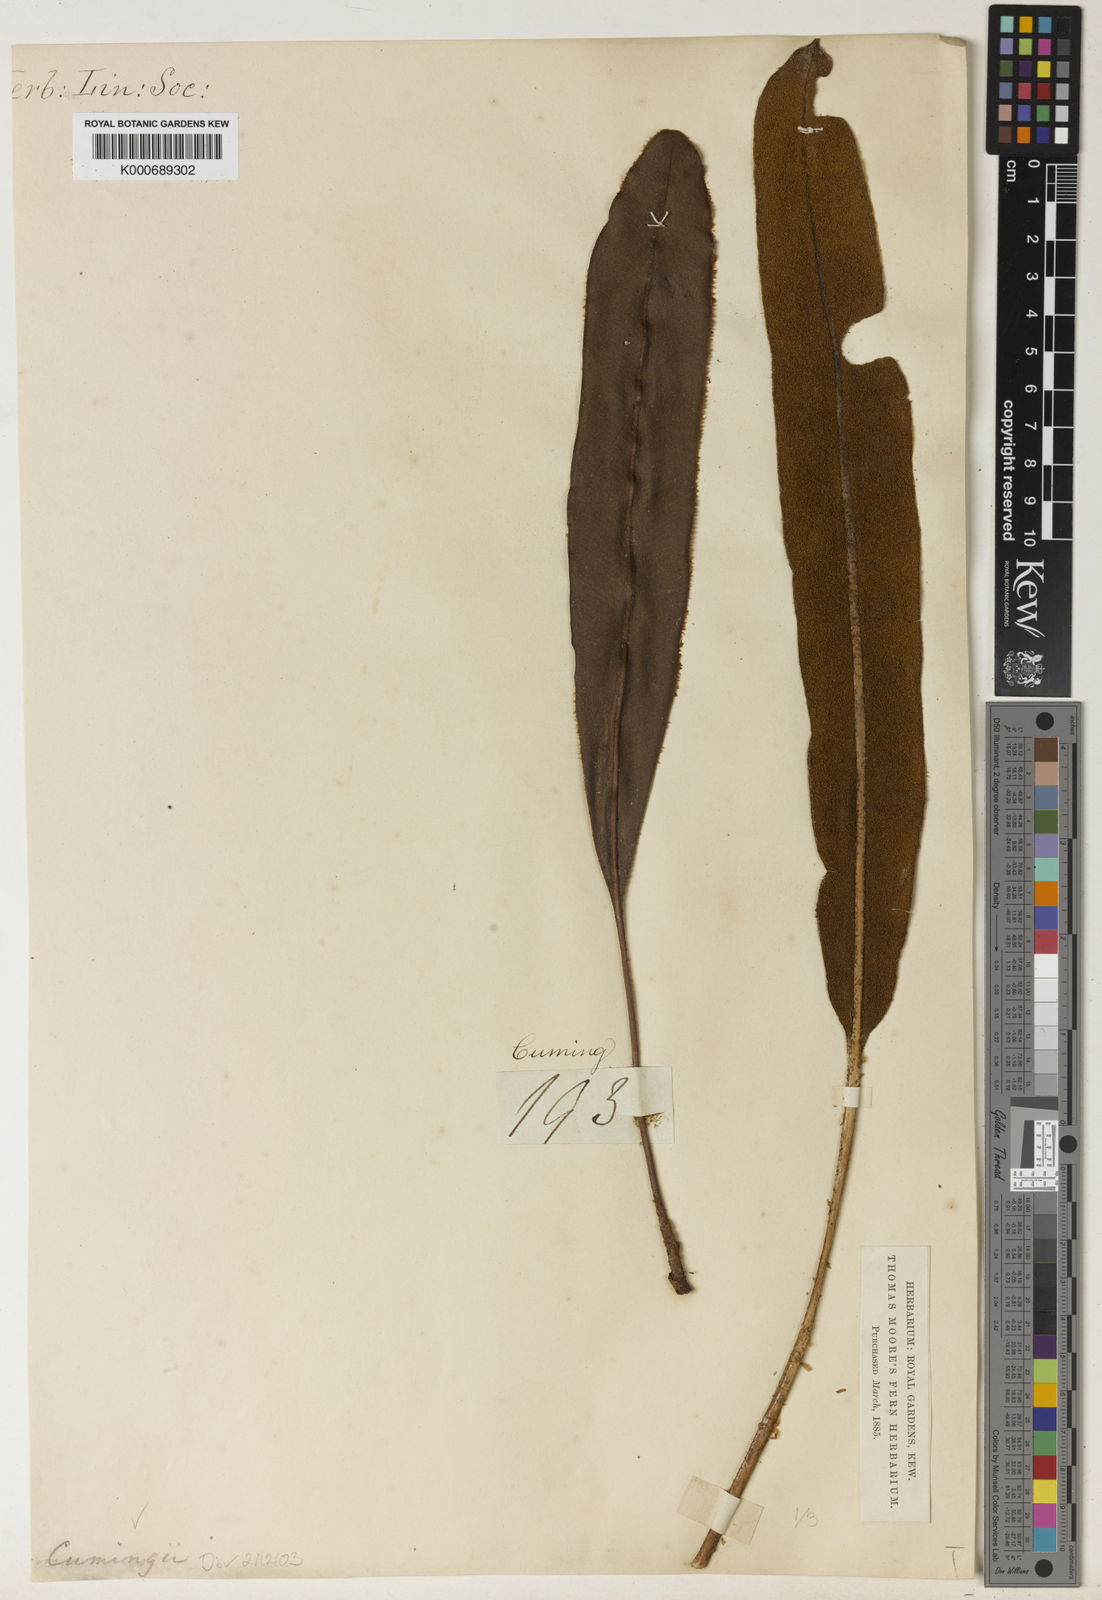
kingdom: Plantae
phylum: Tracheophyta
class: Polypodiopsida
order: Polypodiales
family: Dryopteridaceae
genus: Elaphoglossum
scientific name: Elaphoglossum luzonicum
